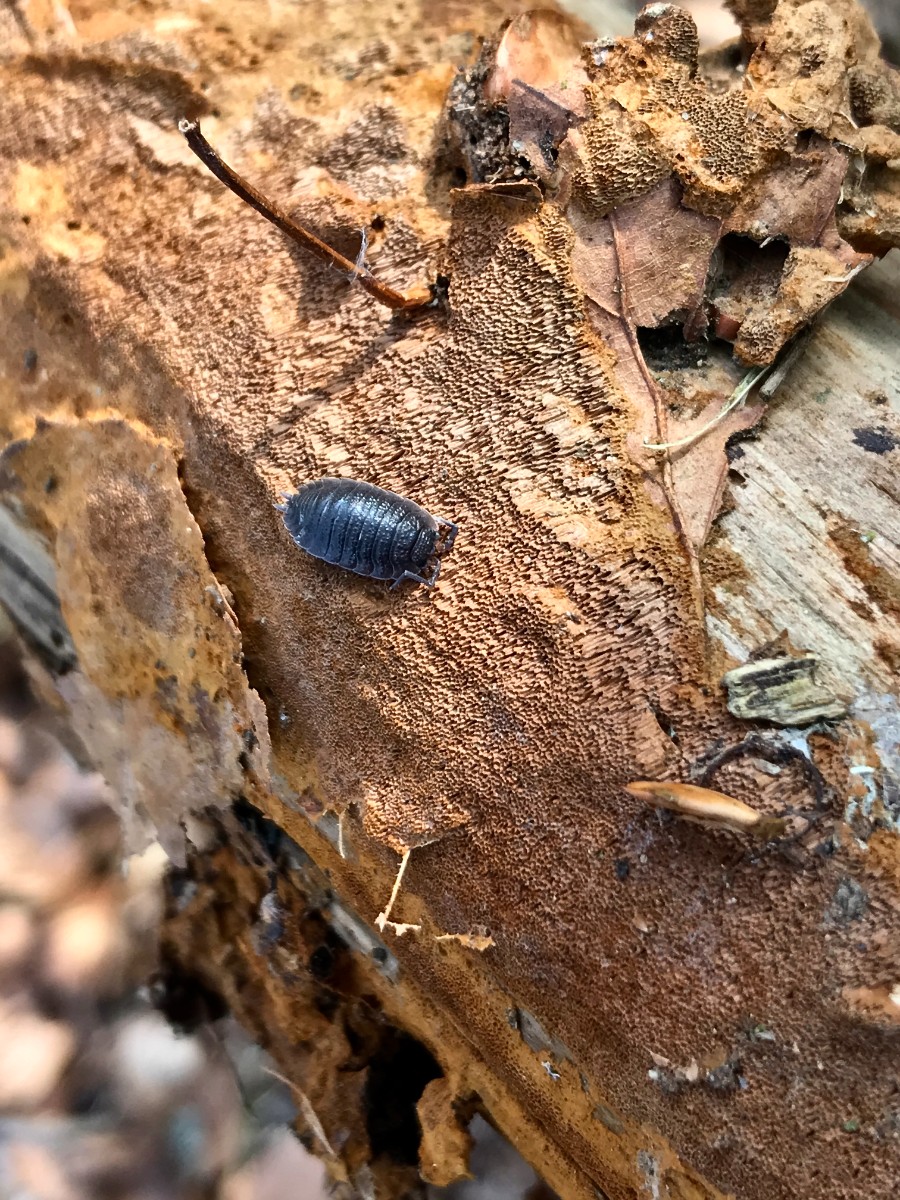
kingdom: Fungi
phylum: Basidiomycota
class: Agaricomycetes
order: Hymenochaetales
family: Hymenochaetaceae
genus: Fuscoporia
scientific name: Fuscoporia ferrea
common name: skorpe-ildporesvamp
